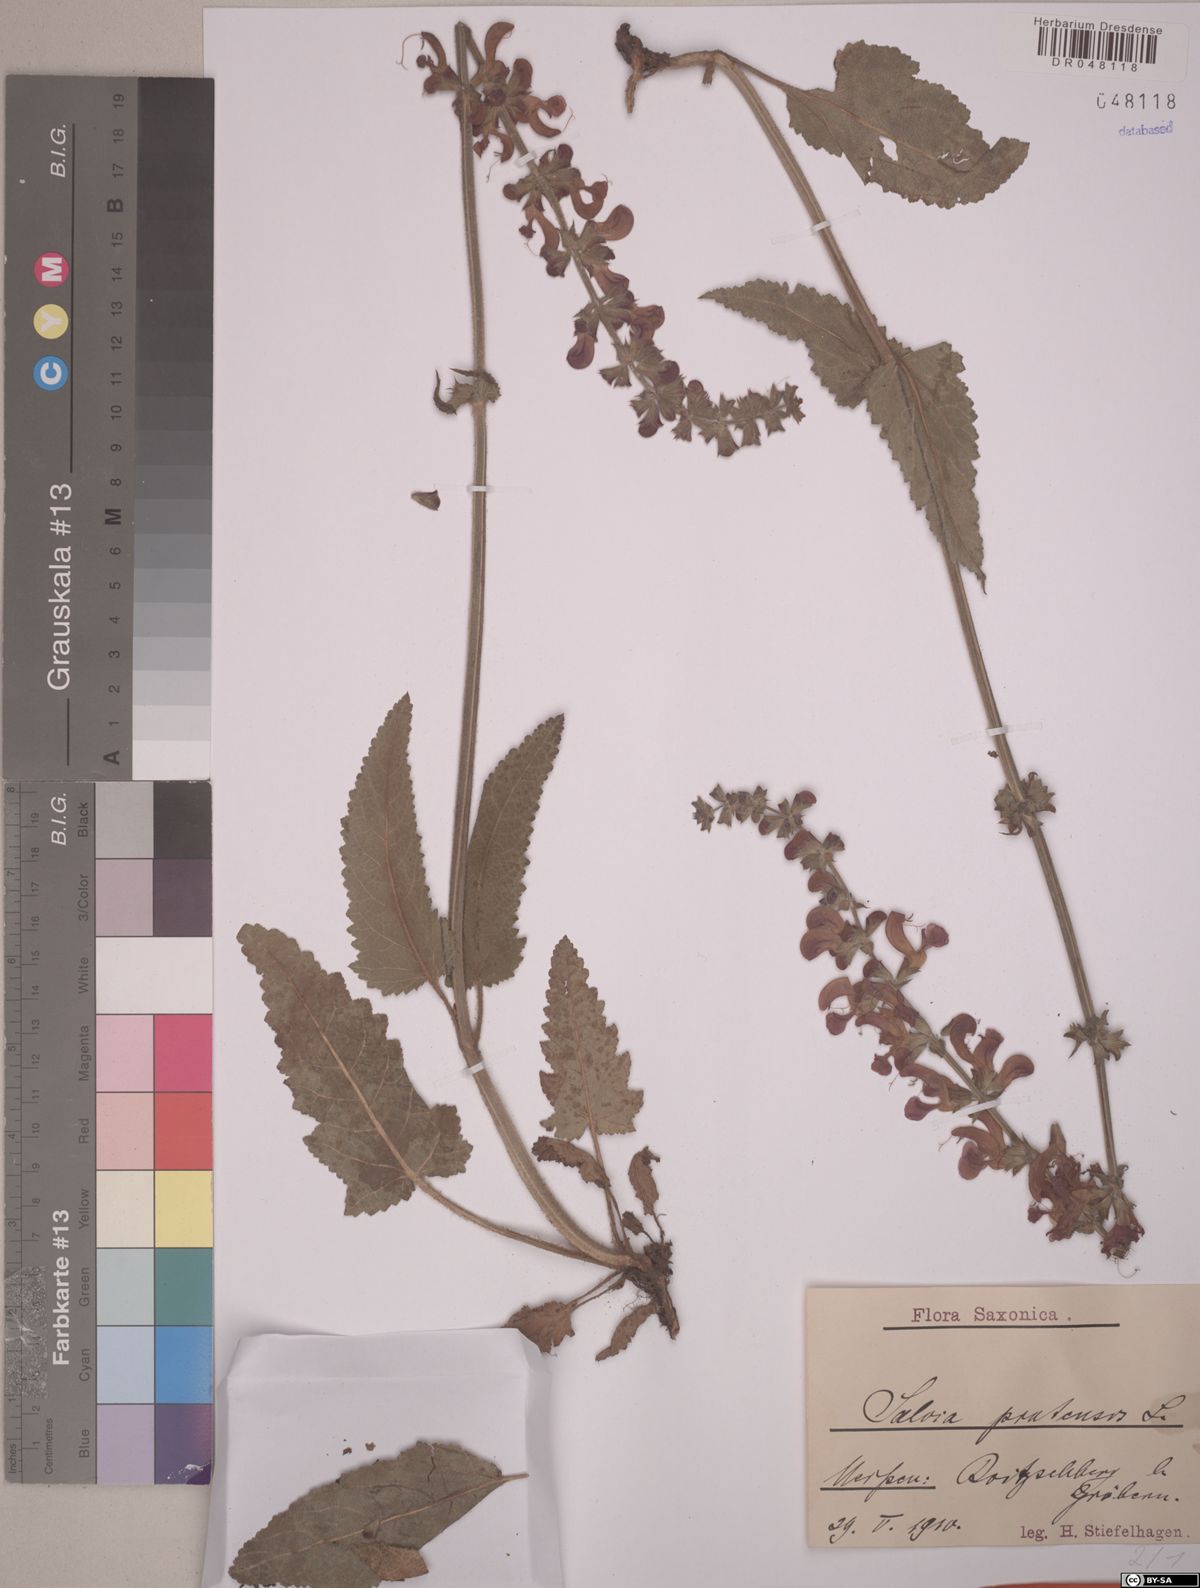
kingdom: Plantae
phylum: Tracheophyta
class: Magnoliopsida
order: Lamiales
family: Lamiaceae
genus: Salvia
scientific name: Salvia pratensis
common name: Meadow sage
